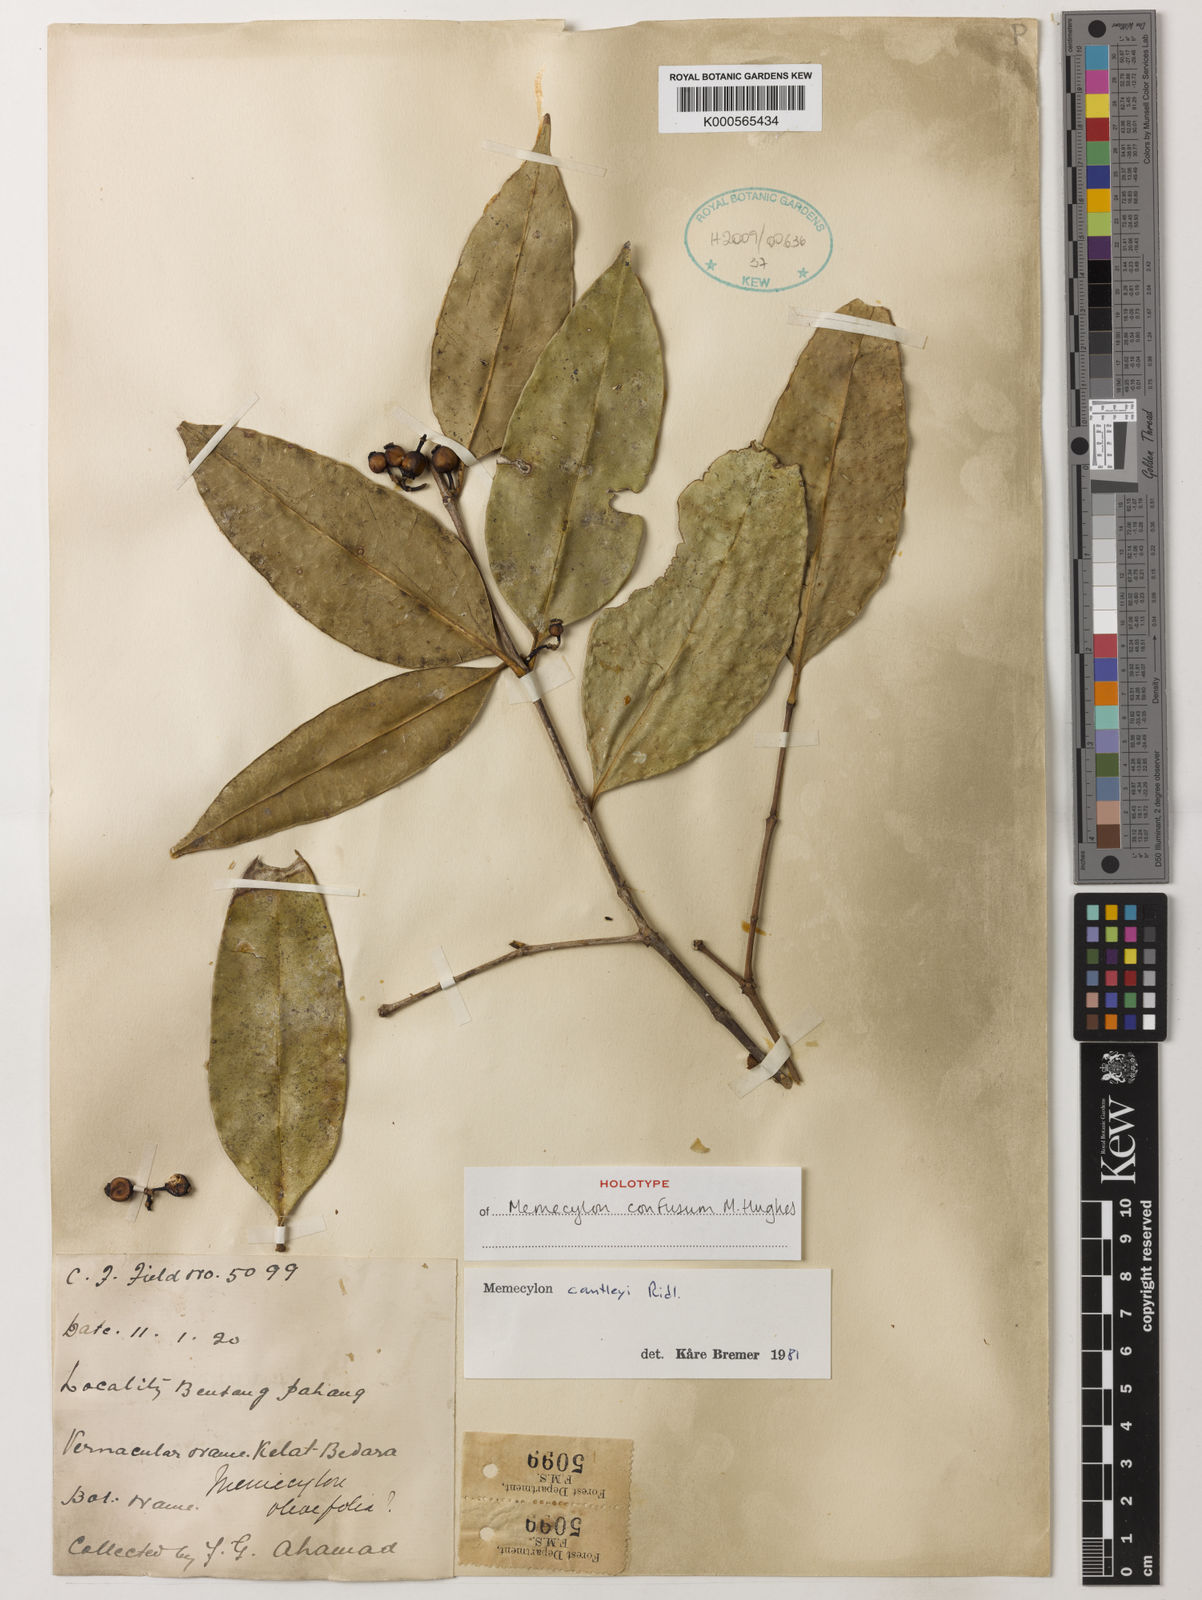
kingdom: Plantae
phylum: Tracheophyta
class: Magnoliopsida
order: Myrtales
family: Melastomataceae
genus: Memecylon
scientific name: Memecylon cantleyi
